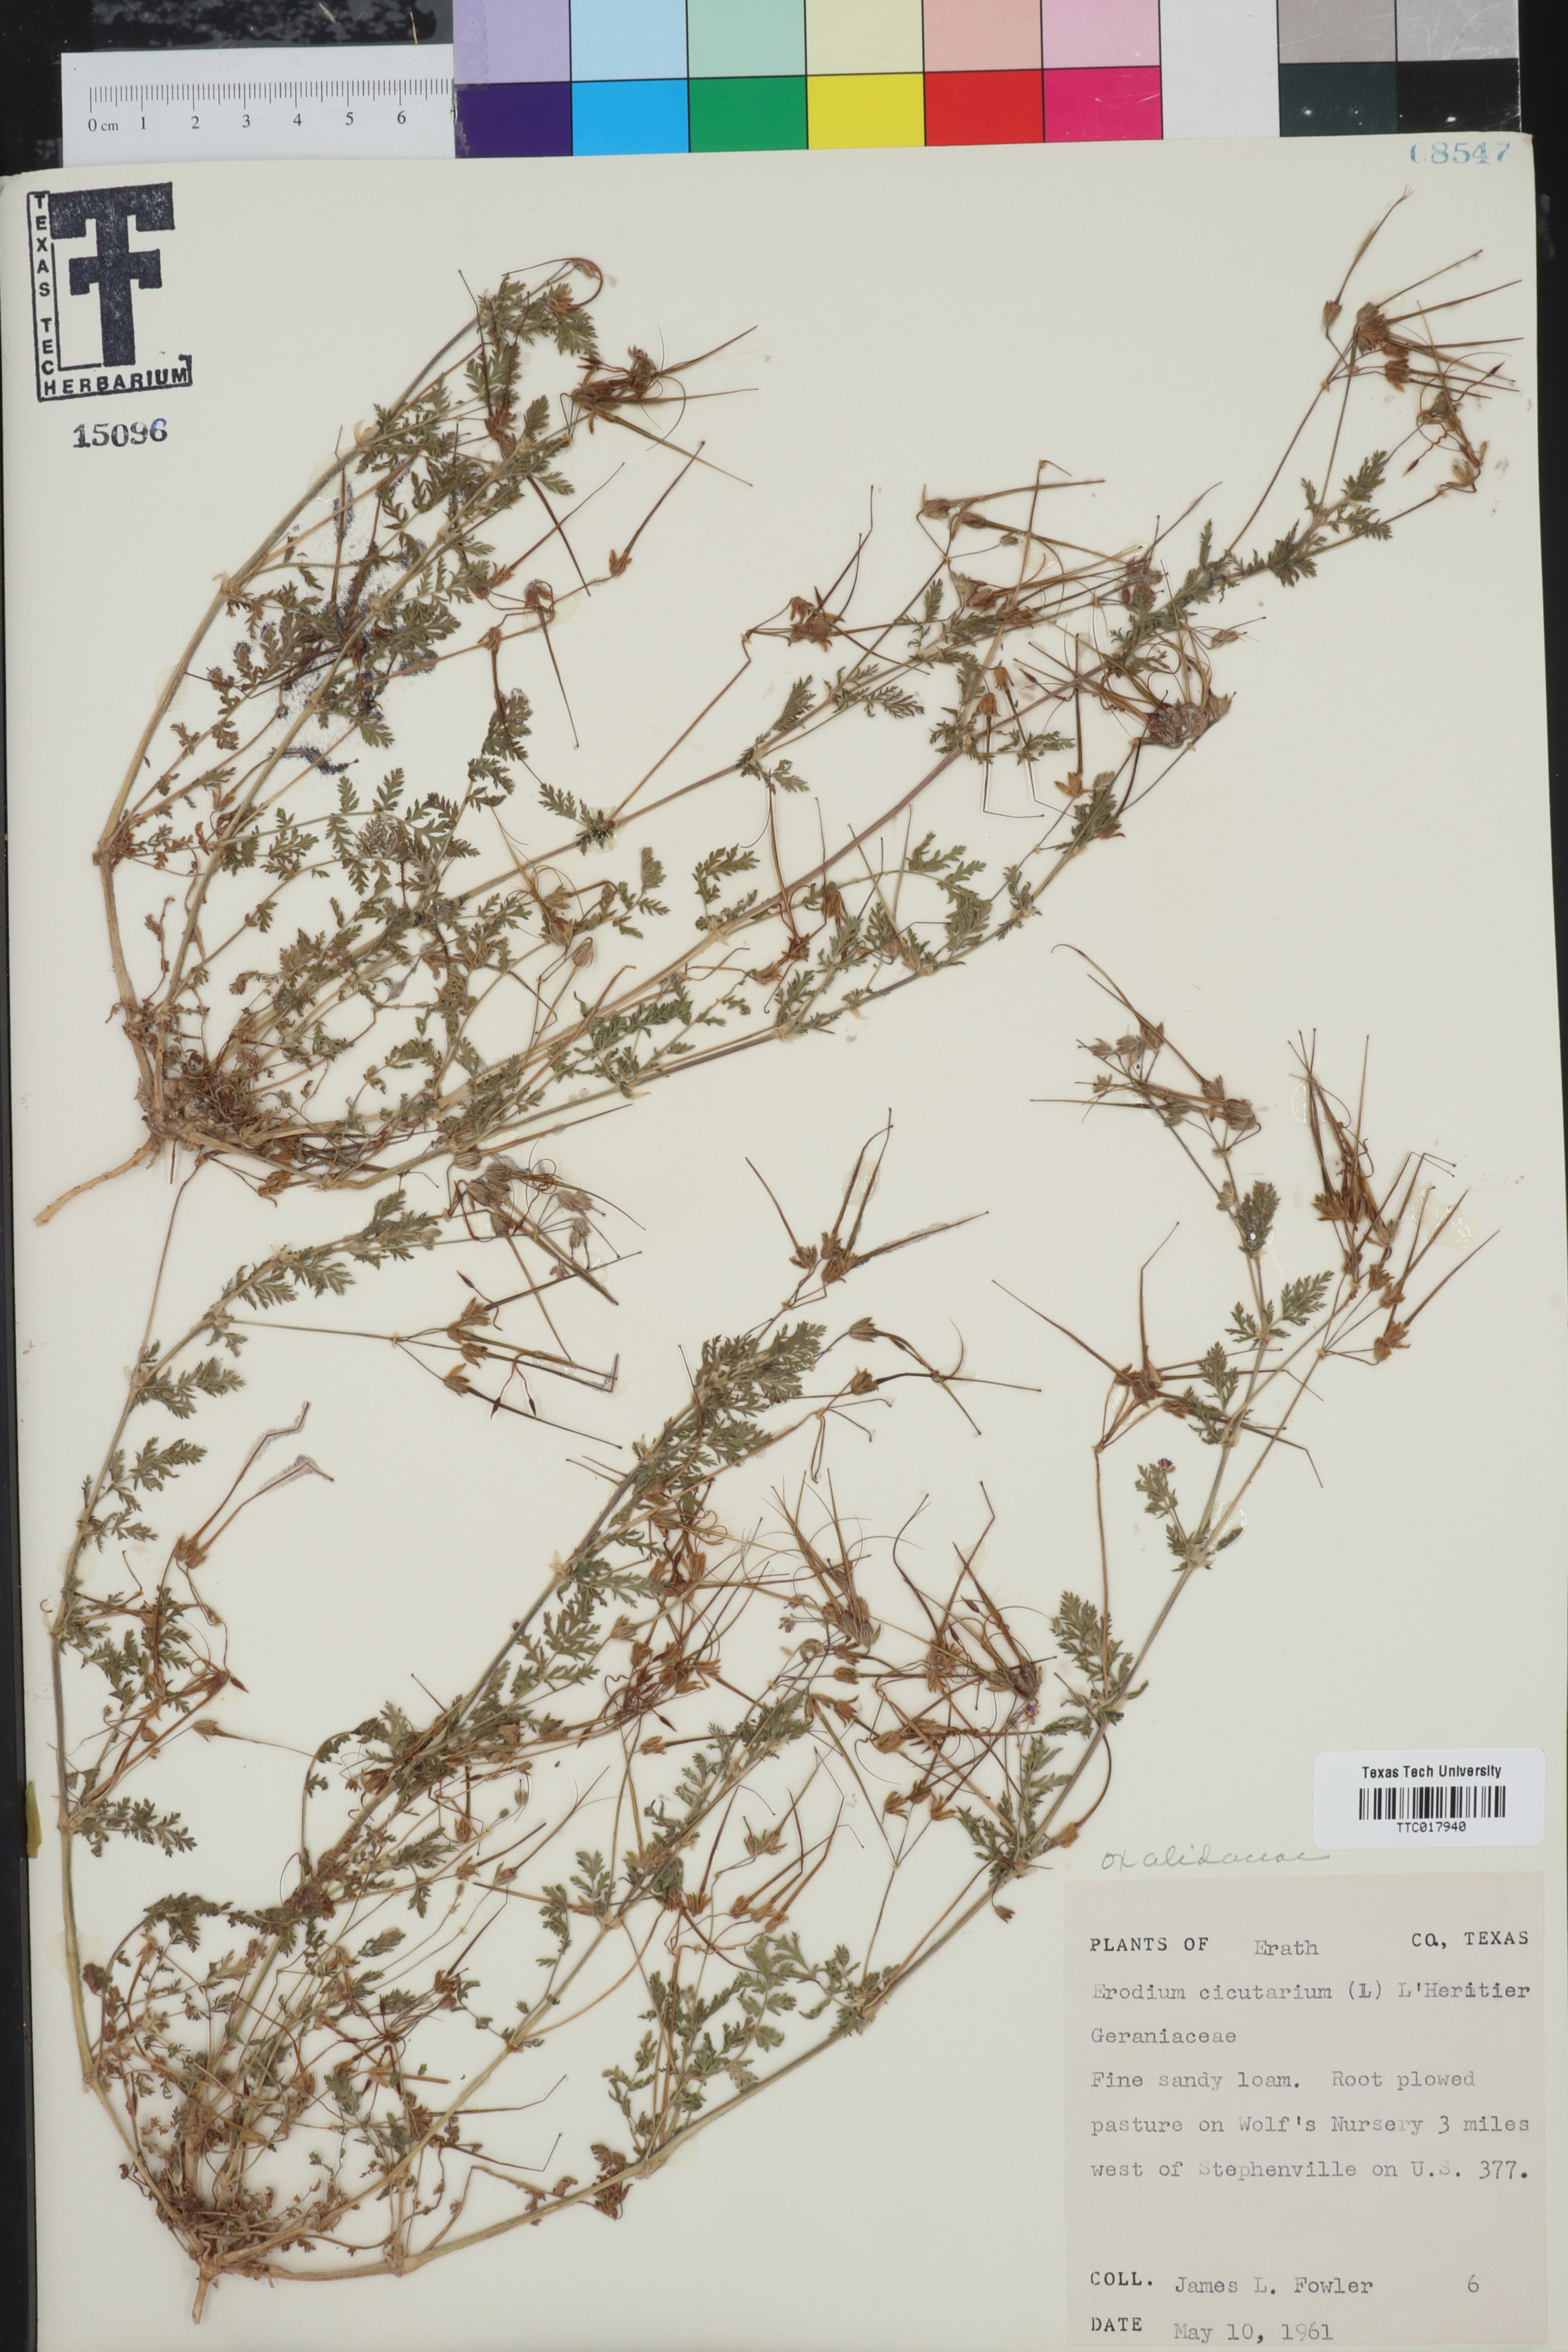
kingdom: Plantae
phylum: Tracheophyta
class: Magnoliopsida
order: Oxalidales
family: Oxalidaceae
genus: Oxalis
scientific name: Oxalis
